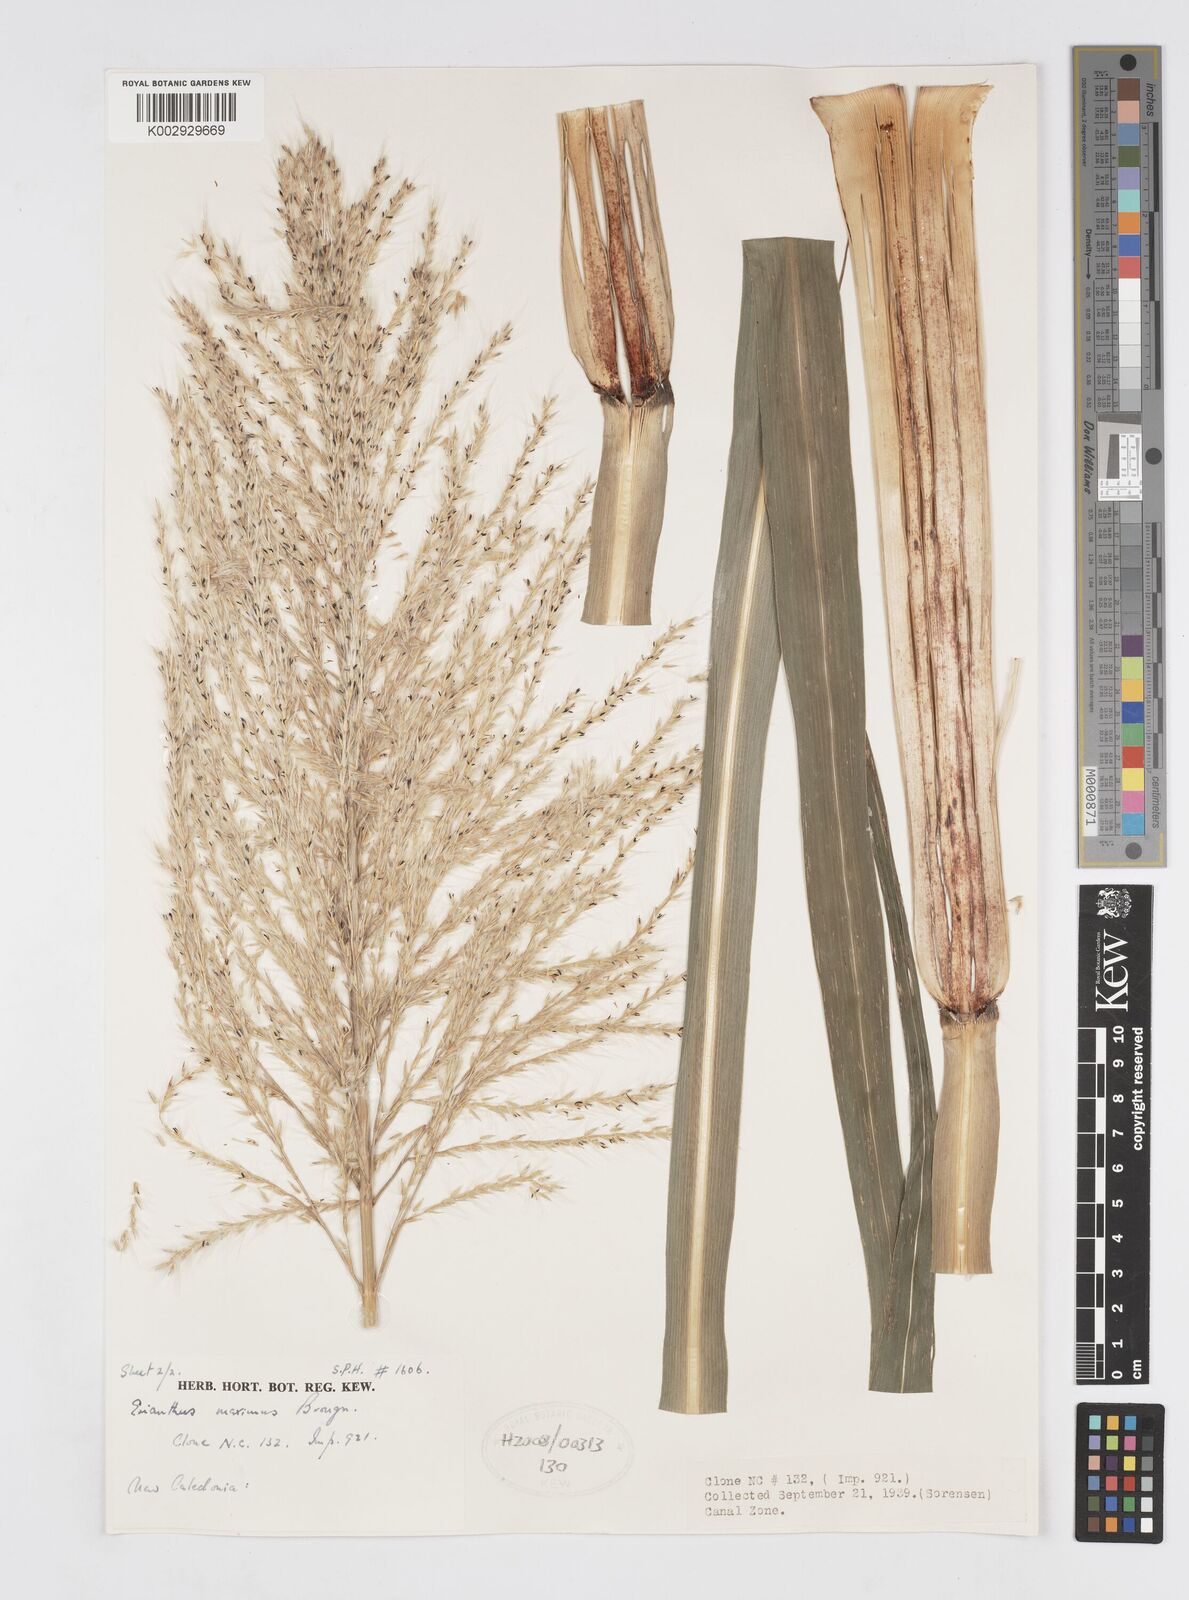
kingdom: Plantae
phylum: Tracheophyta
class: Liliopsida
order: Poales
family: Poaceae
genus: Saccharum
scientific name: Saccharum maximum
